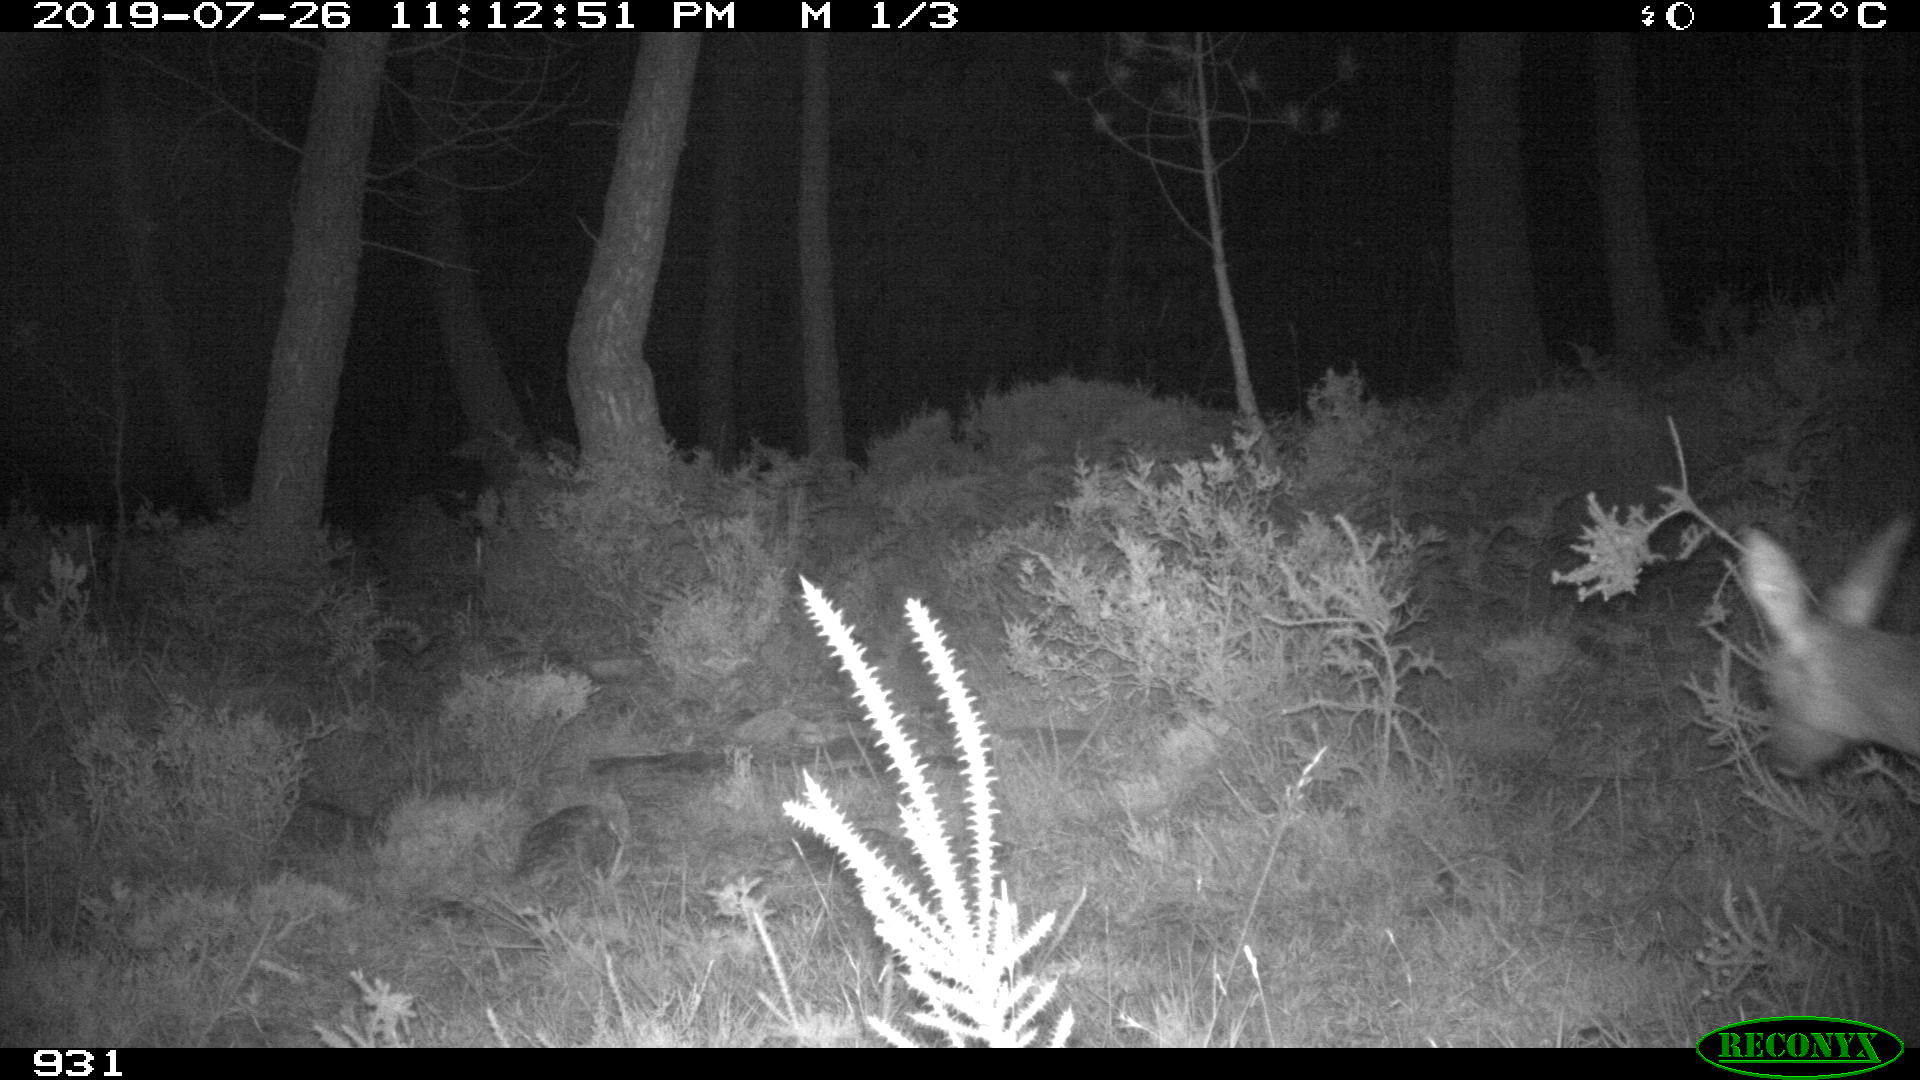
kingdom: Animalia
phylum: Chordata
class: Mammalia
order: Artiodactyla
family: Cervidae
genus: Capreolus
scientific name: Capreolus capreolus
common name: Western roe deer
